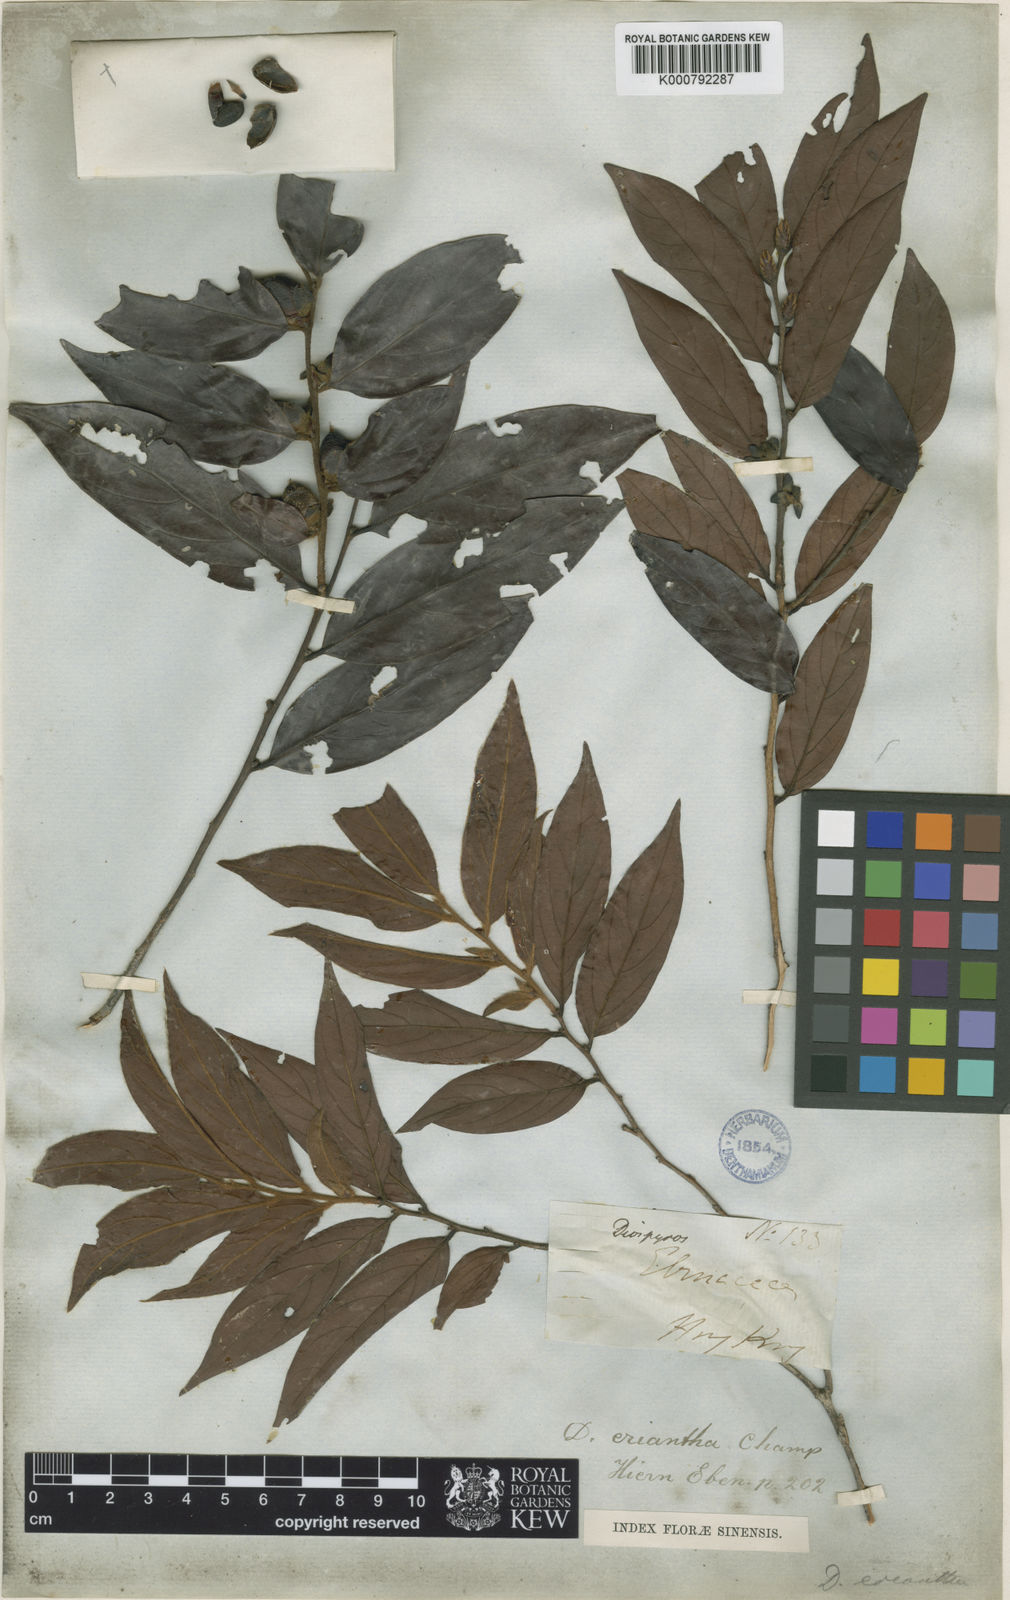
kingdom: Plantae
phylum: Tracheophyta
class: Magnoliopsida
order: Ericales
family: Ebenaceae
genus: Diospyros
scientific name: Diospyros eriantha
